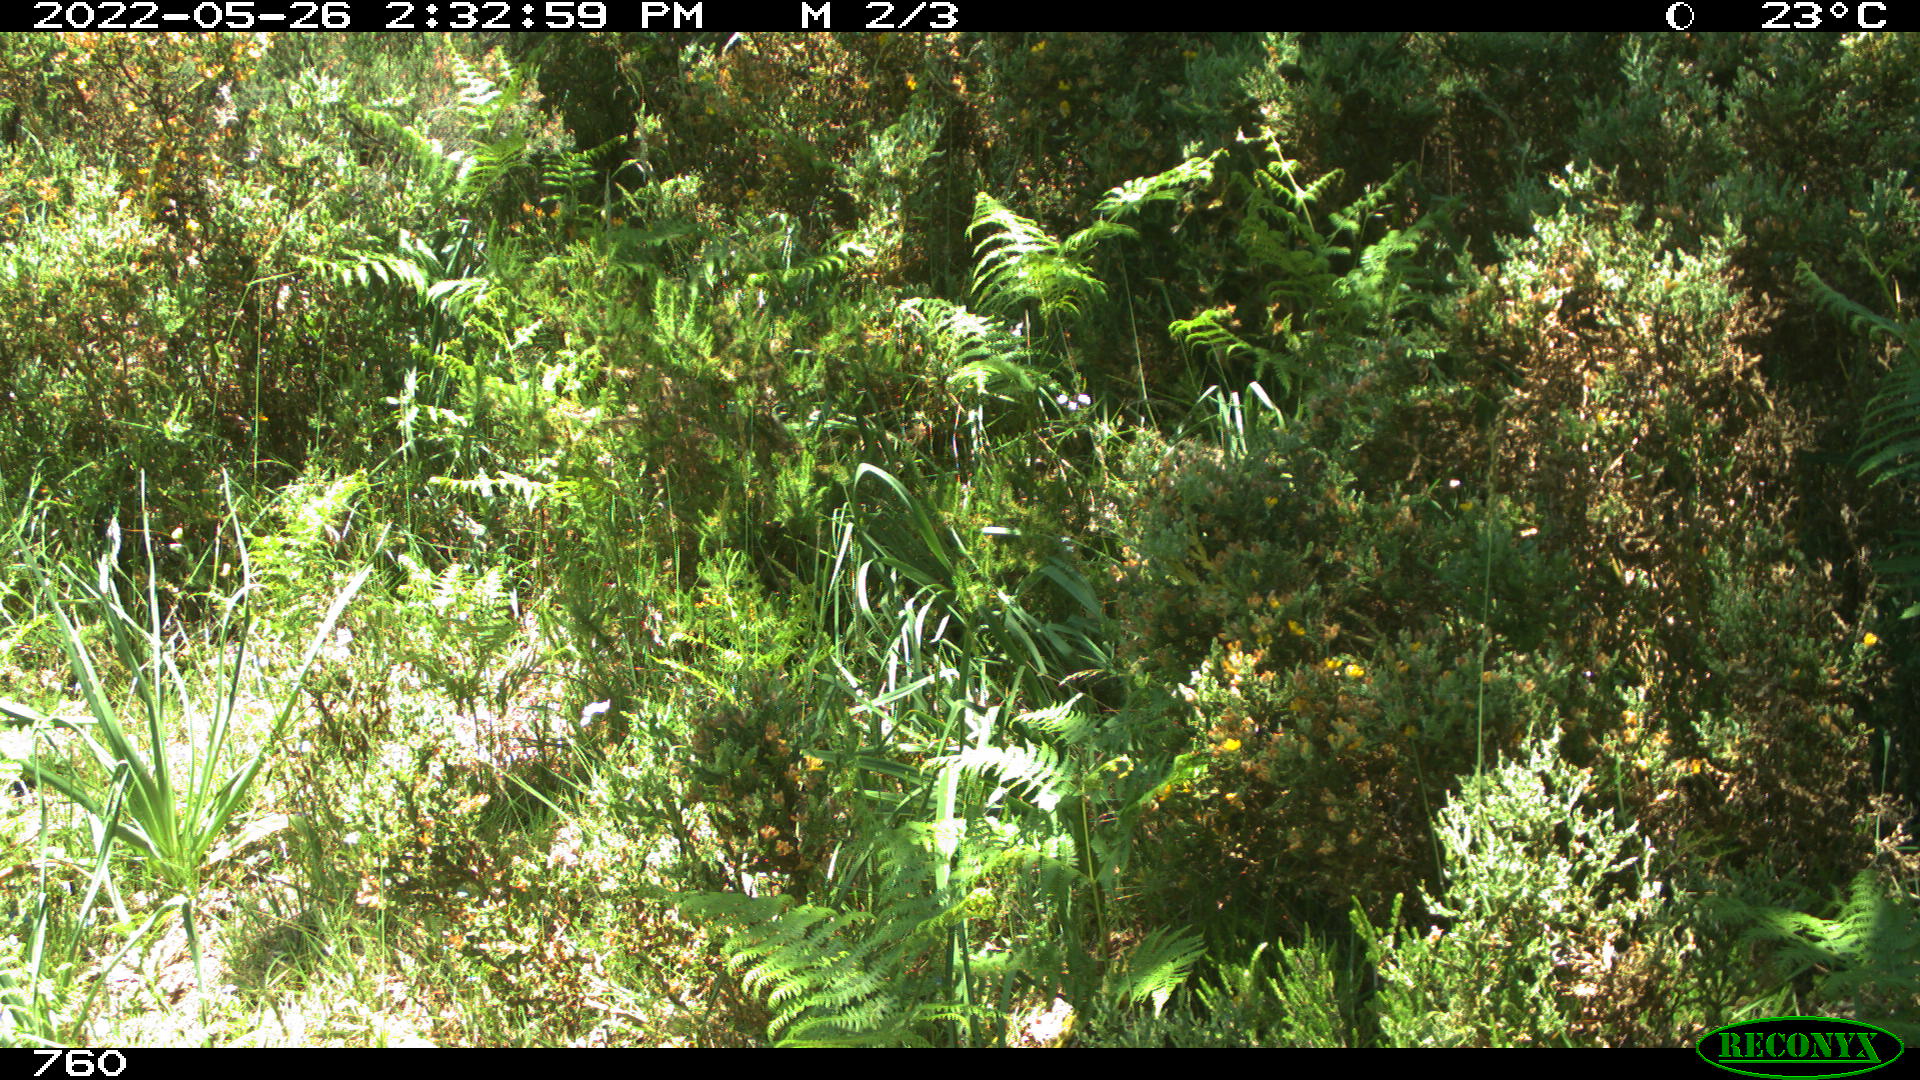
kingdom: Animalia
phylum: Chordata
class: Mammalia
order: Artiodactyla
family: Cervidae
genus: Capreolus
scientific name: Capreolus capreolus
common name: Western roe deer
